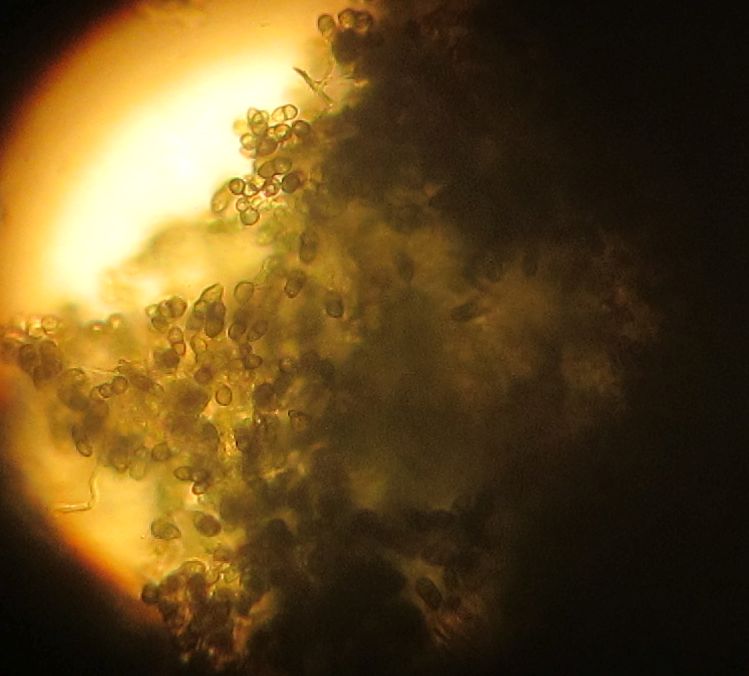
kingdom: Fungi
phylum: Ascomycota
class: Lecanoromycetes
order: Caliciales
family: Caliciaceae
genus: Calicium
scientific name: Calicium viride
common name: gulgrøn nålelav
